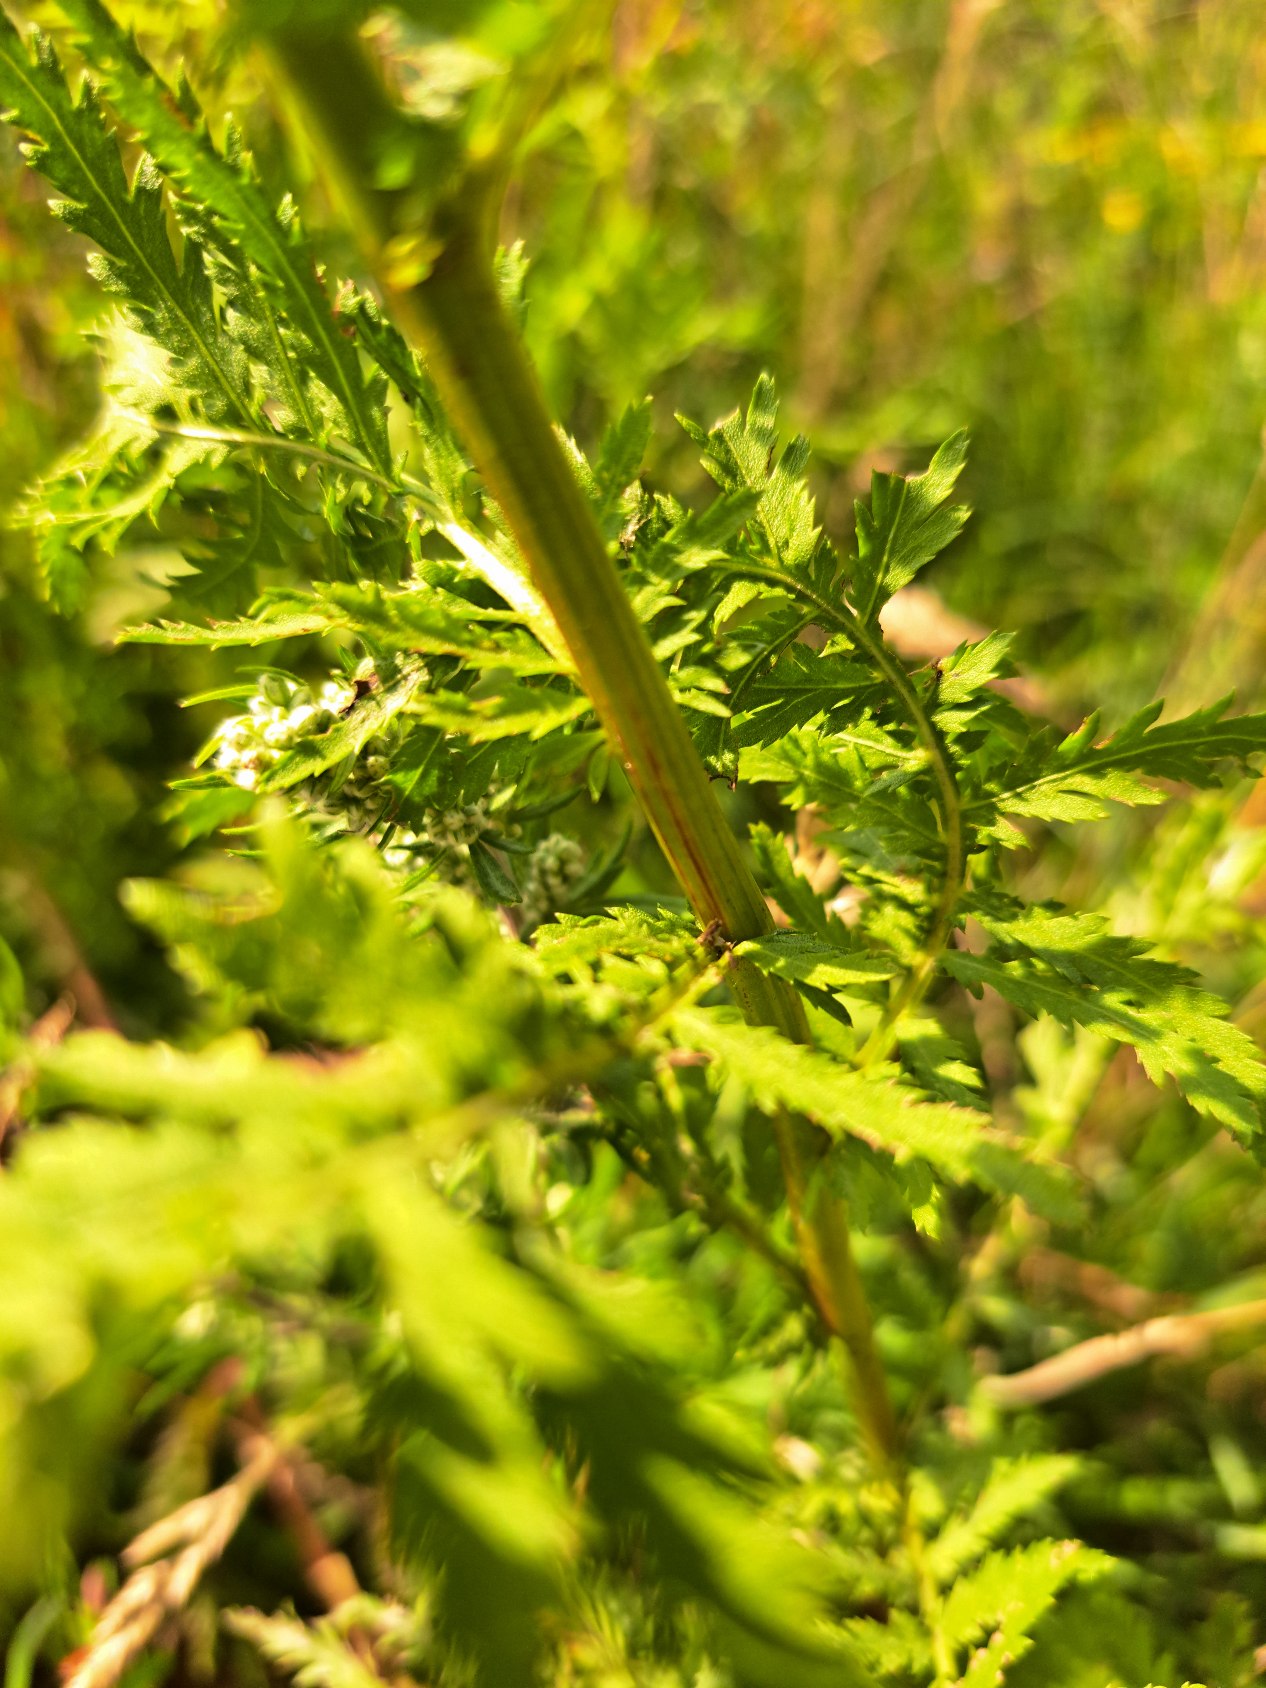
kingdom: Plantae
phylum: Tracheophyta
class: Magnoliopsida
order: Asterales
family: Asteraceae
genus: Tanacetum
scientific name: Tanacetum vulgare
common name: Rejnfan
